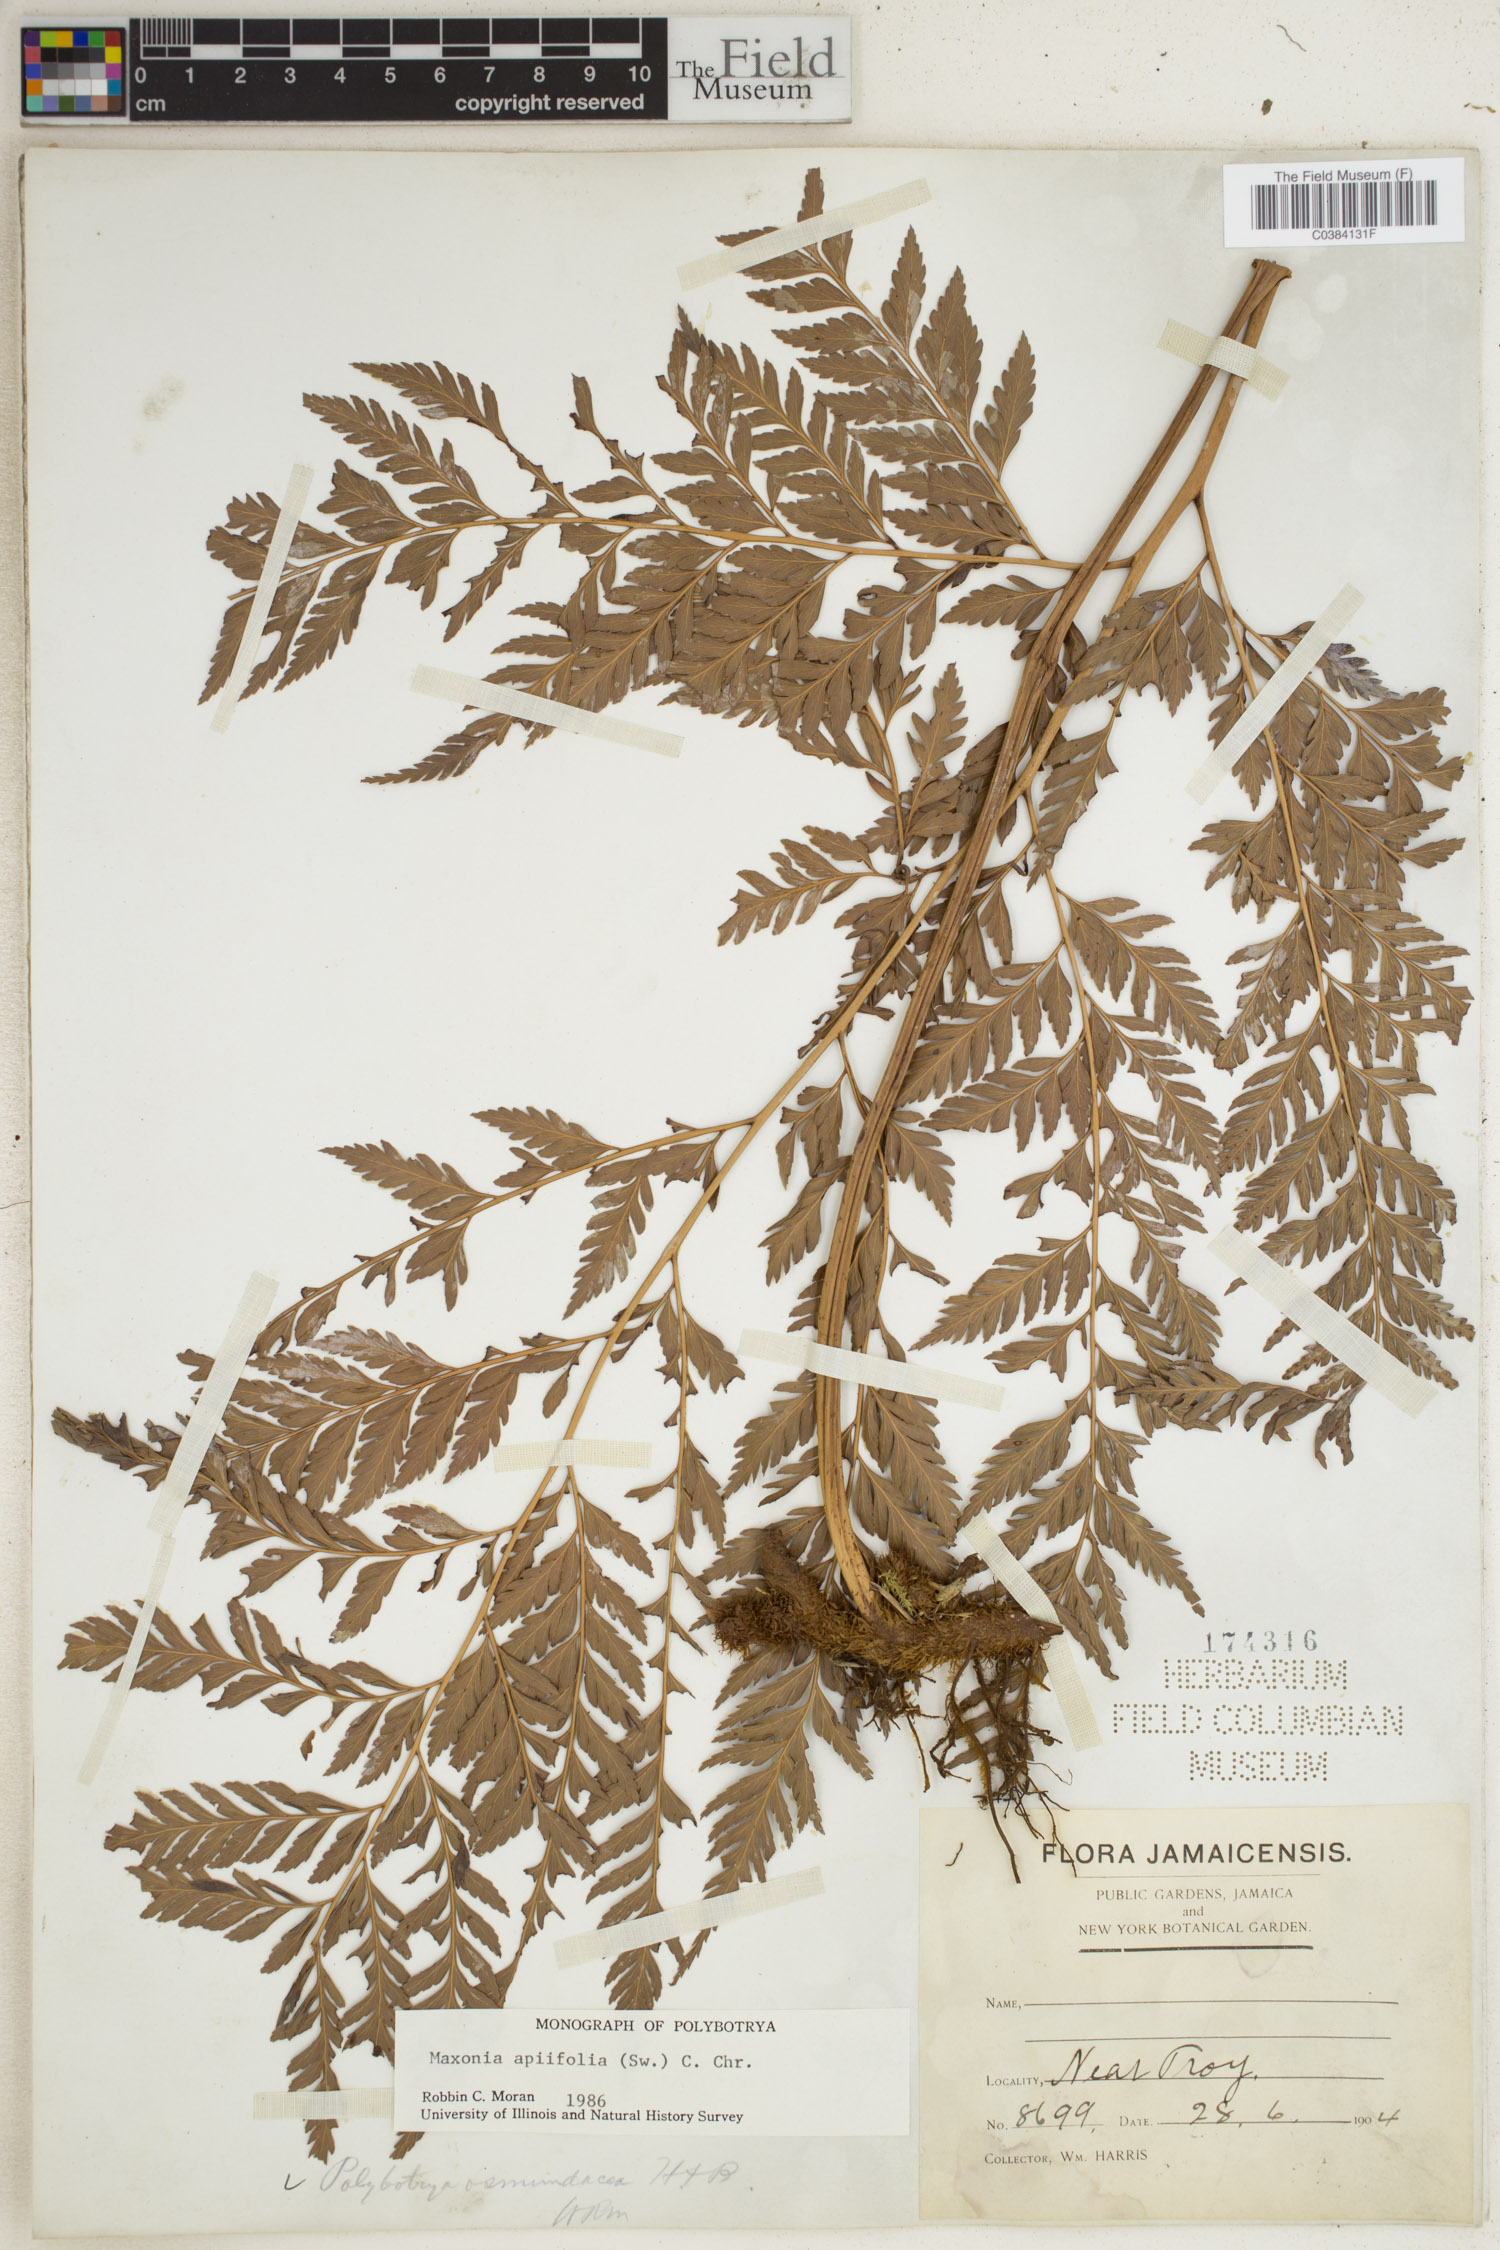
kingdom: Plantae
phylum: Tracheophyta
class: Polypodiopsida
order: Polypodiales
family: Dryopteridaceae
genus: Maxonia
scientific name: Maxonia apiifolia
